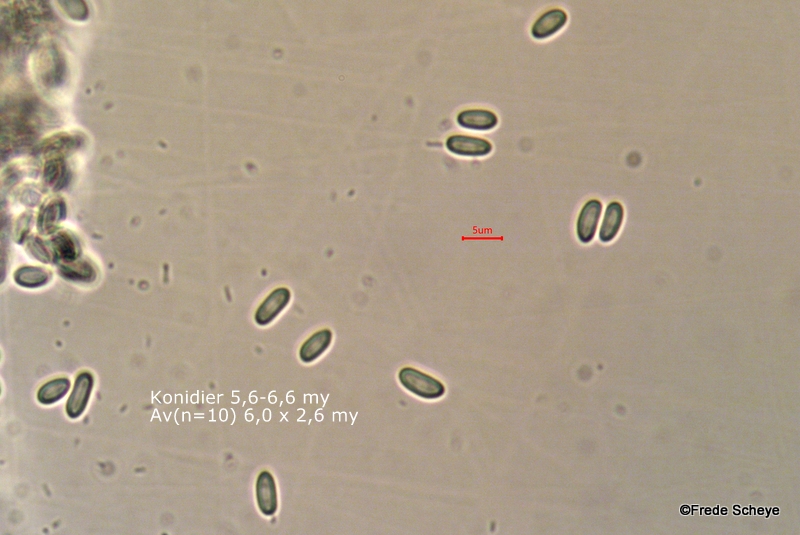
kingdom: Fungi
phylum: Ascomycota
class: Sordariomycetes
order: Hypocreales
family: Nectriaceae
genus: Nectria
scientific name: Nectria cinnabarina
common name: almindelig cinnobersvamp
